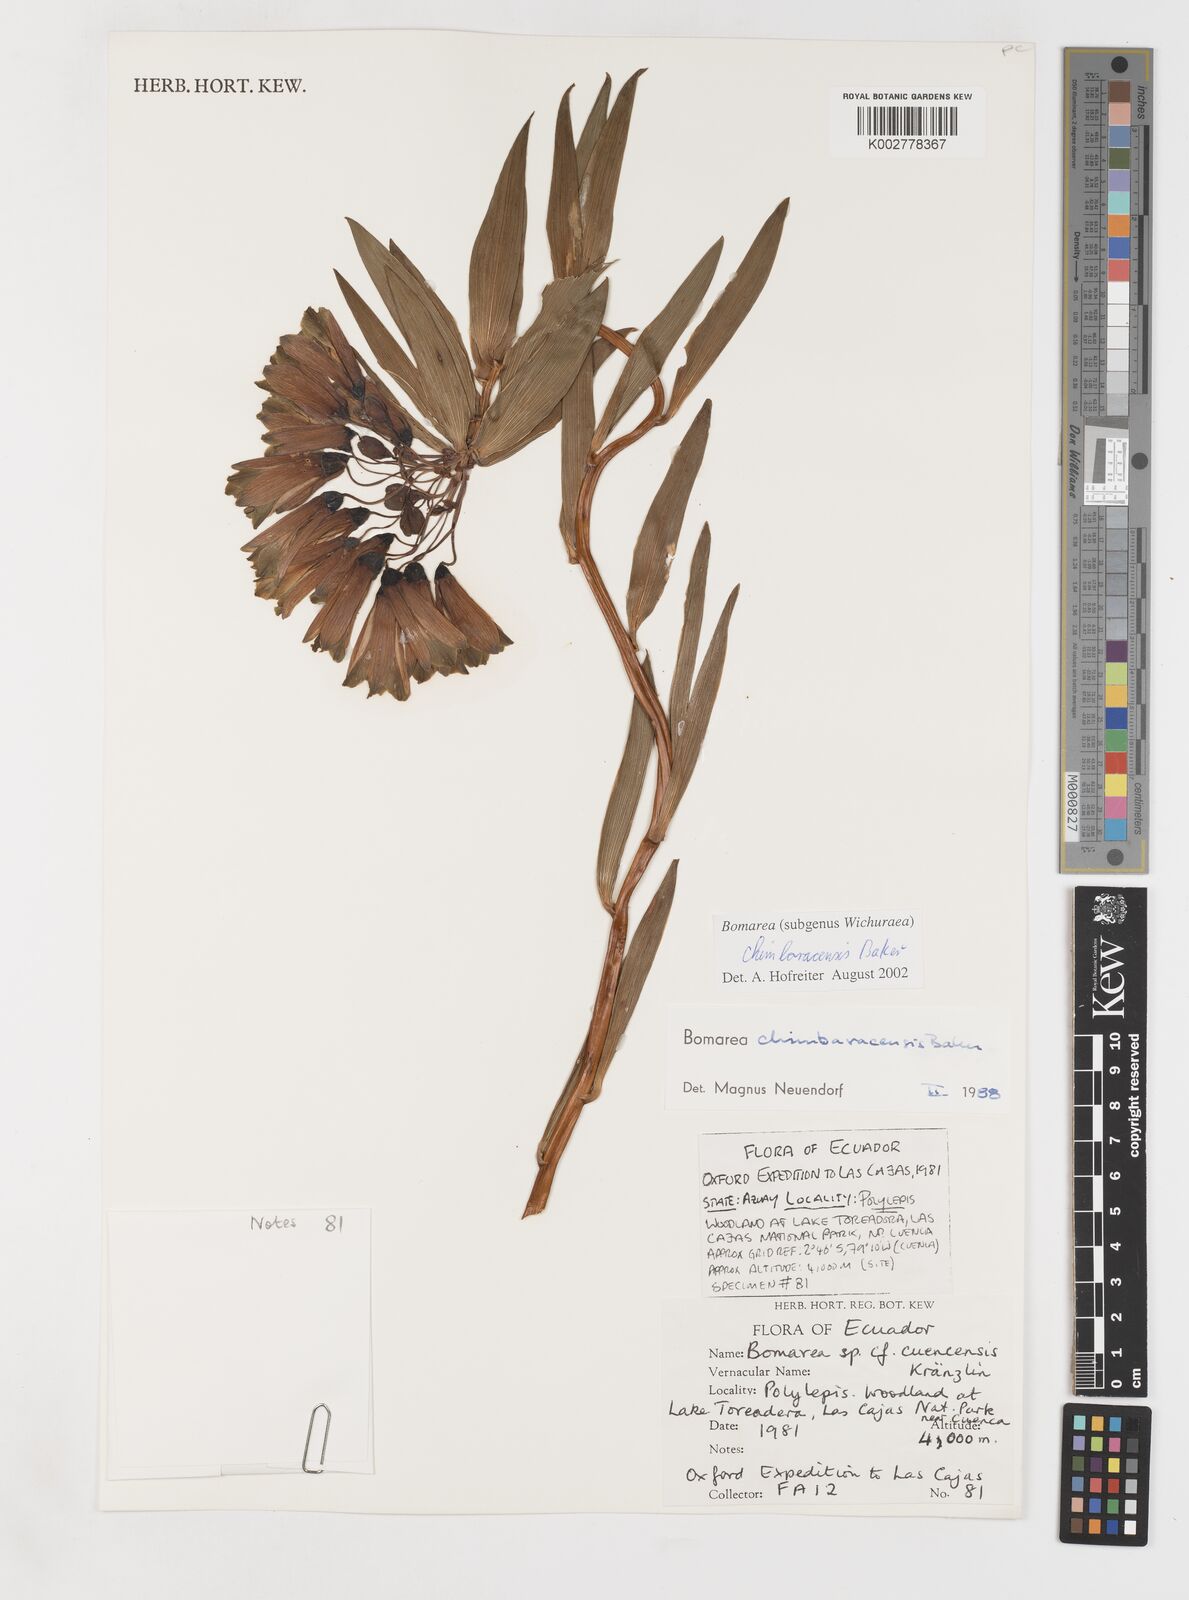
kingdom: Plantae
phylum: Tracheophyta
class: Liliopsida
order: Liliales
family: Alstroemeriaceae
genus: Bomarea
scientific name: Bomarea chimboracensis
